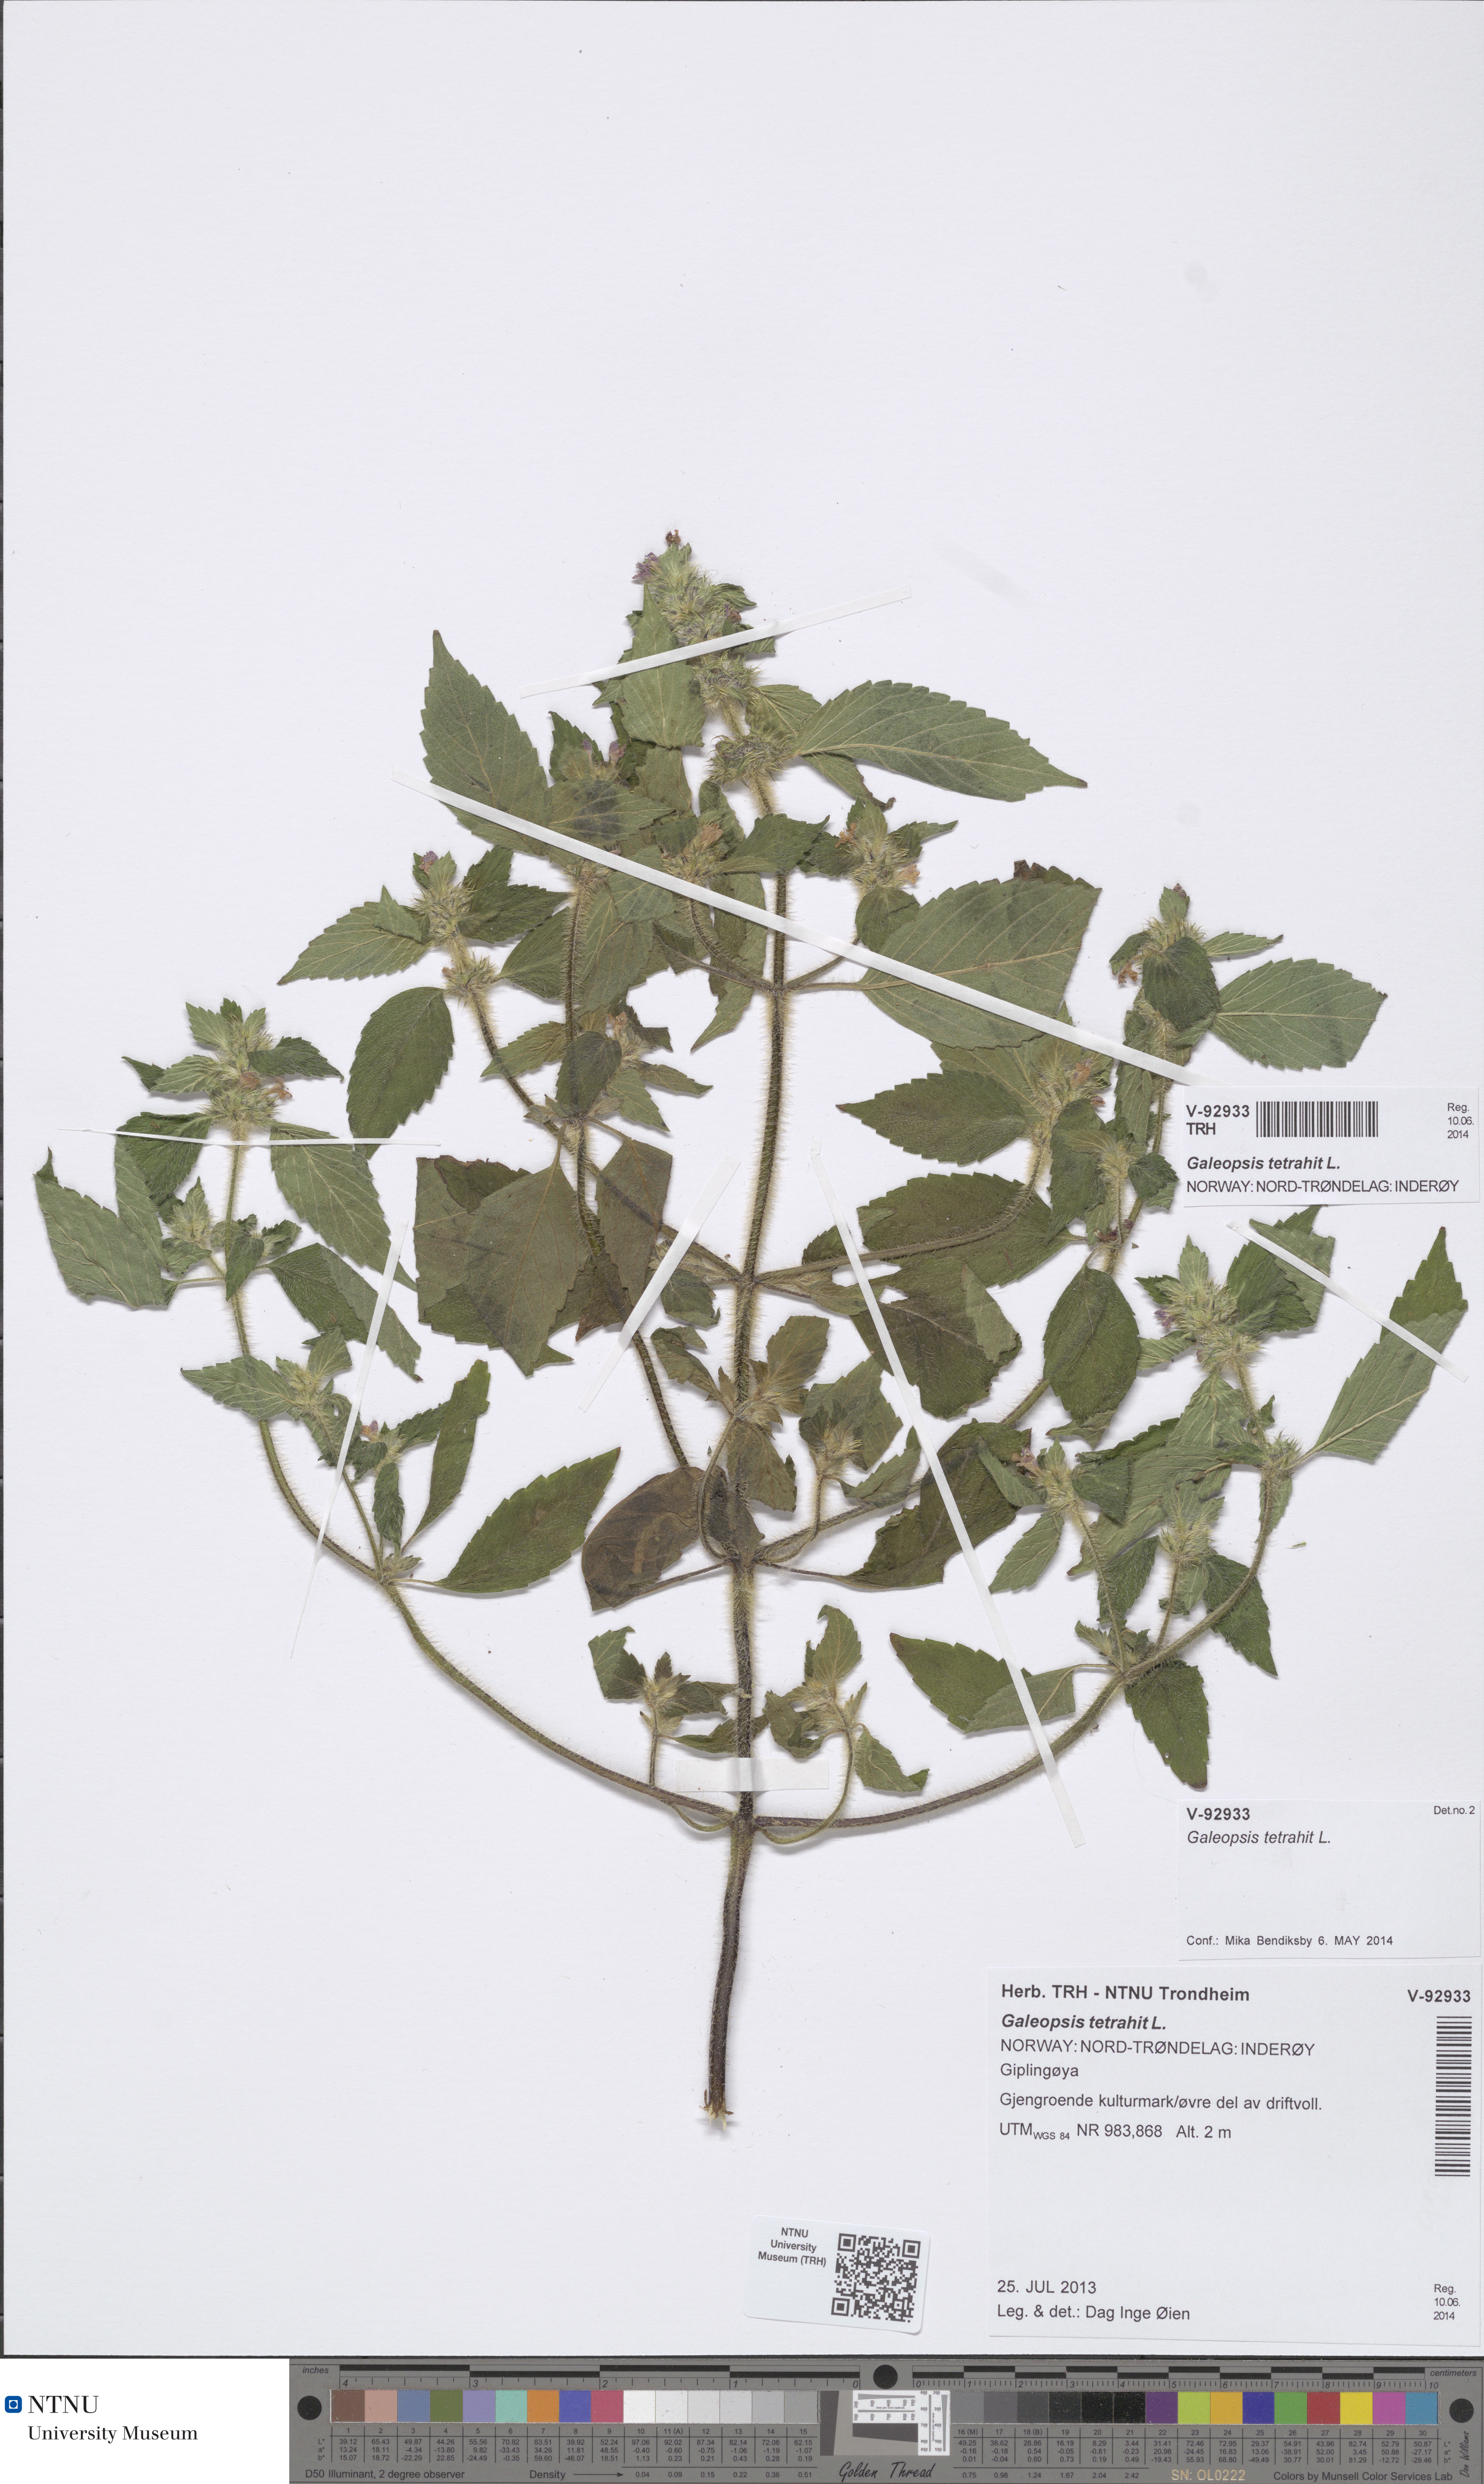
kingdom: Plantae
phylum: Tracheophyta
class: Magnoliopsida
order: Lamiales
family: Lamiaceae
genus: Galeopsis
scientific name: Galeopsis tetrahit
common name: Common hemp-nettle
